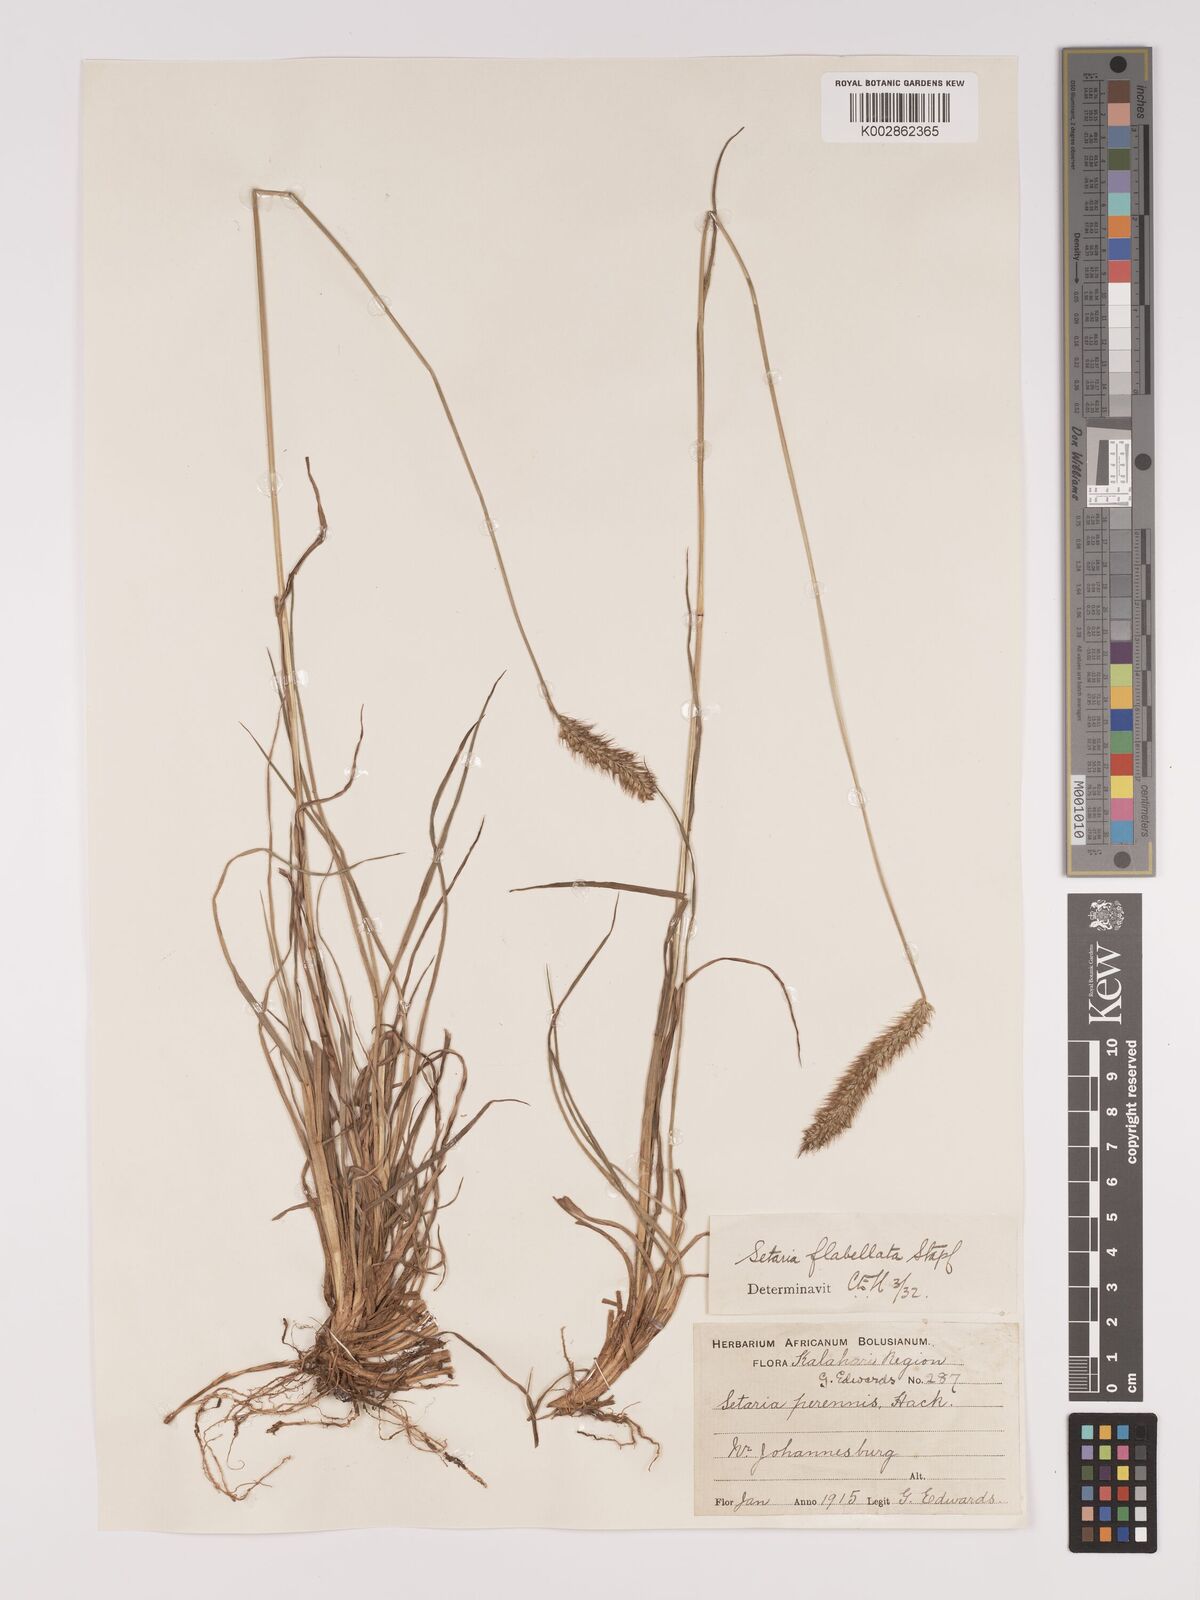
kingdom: Plantae
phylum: Tracheophyta
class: Liliopsida
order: Poales
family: Poaceae
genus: Setaria
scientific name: Setaria sphacelata
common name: African bristlegrass
